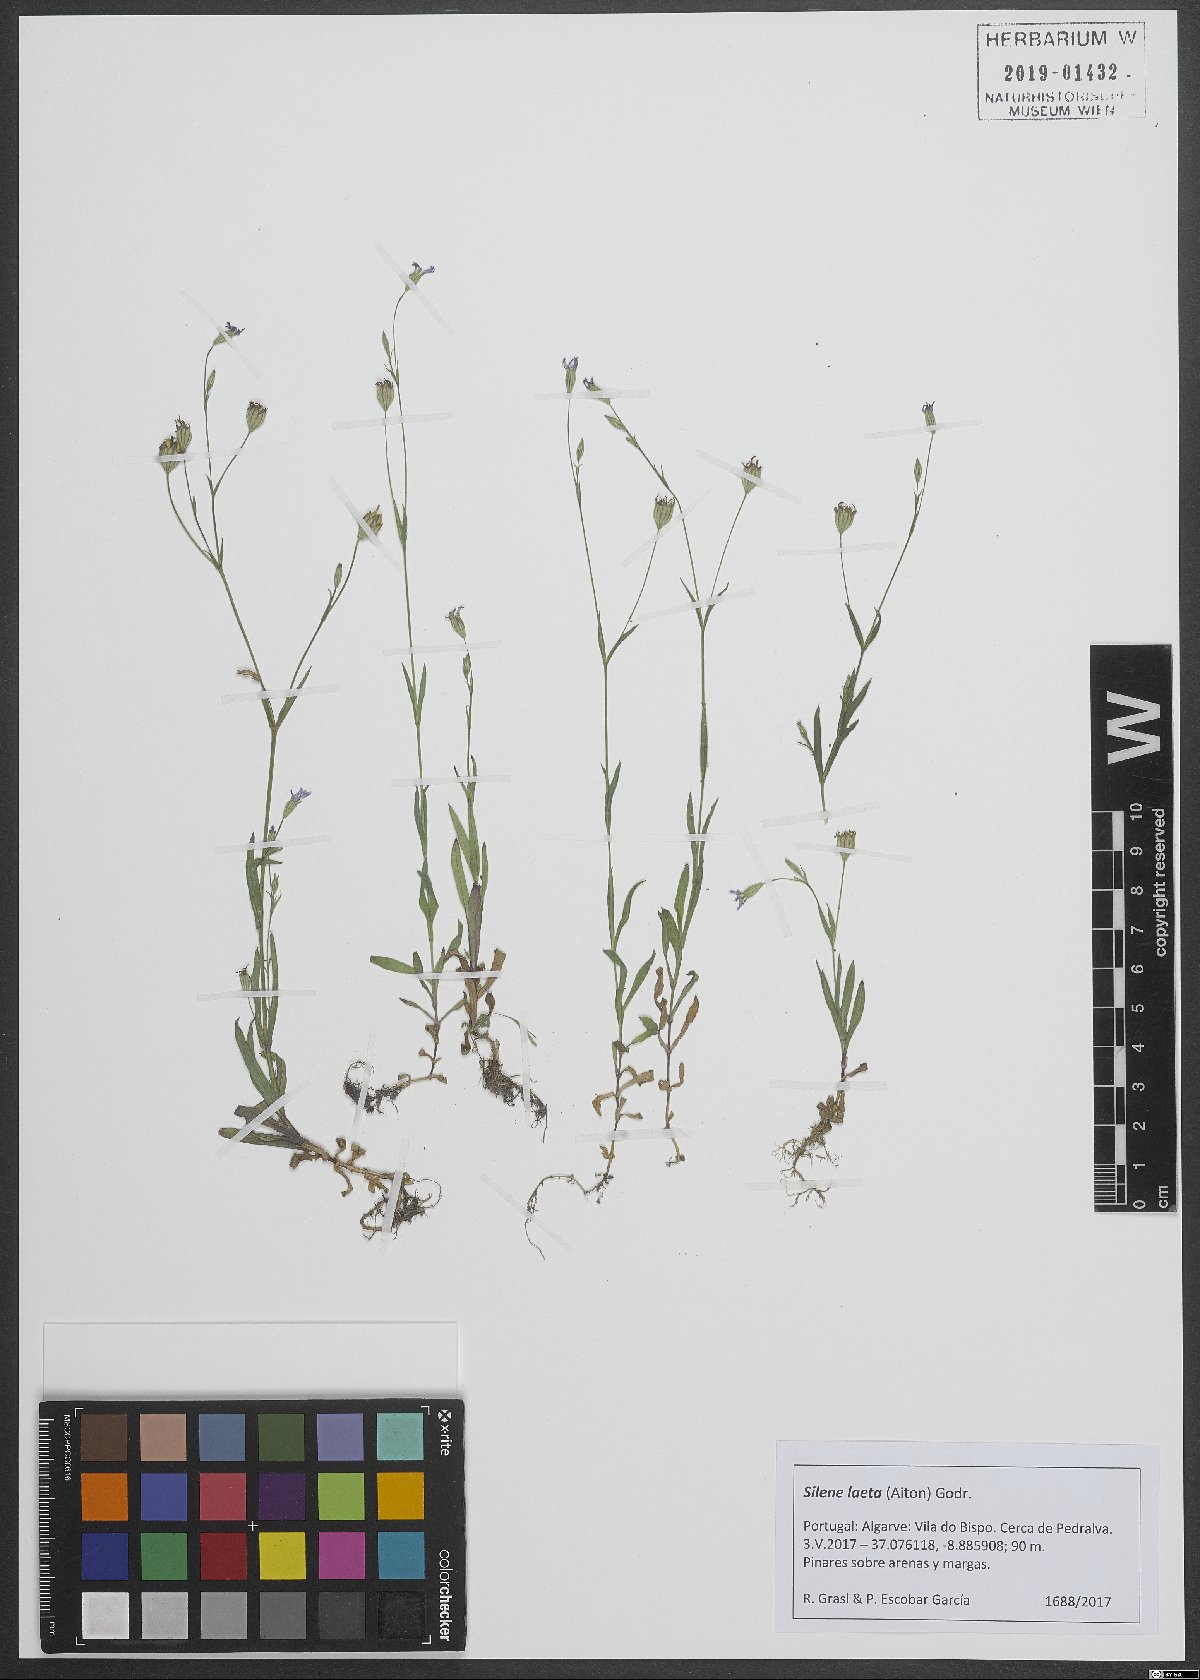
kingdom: Plantae
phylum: Tracheophyta
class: Magnoliopsida
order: Caryophyllales
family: Caryophyllaceae
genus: Eudianthe
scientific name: Eudianthe laeta
